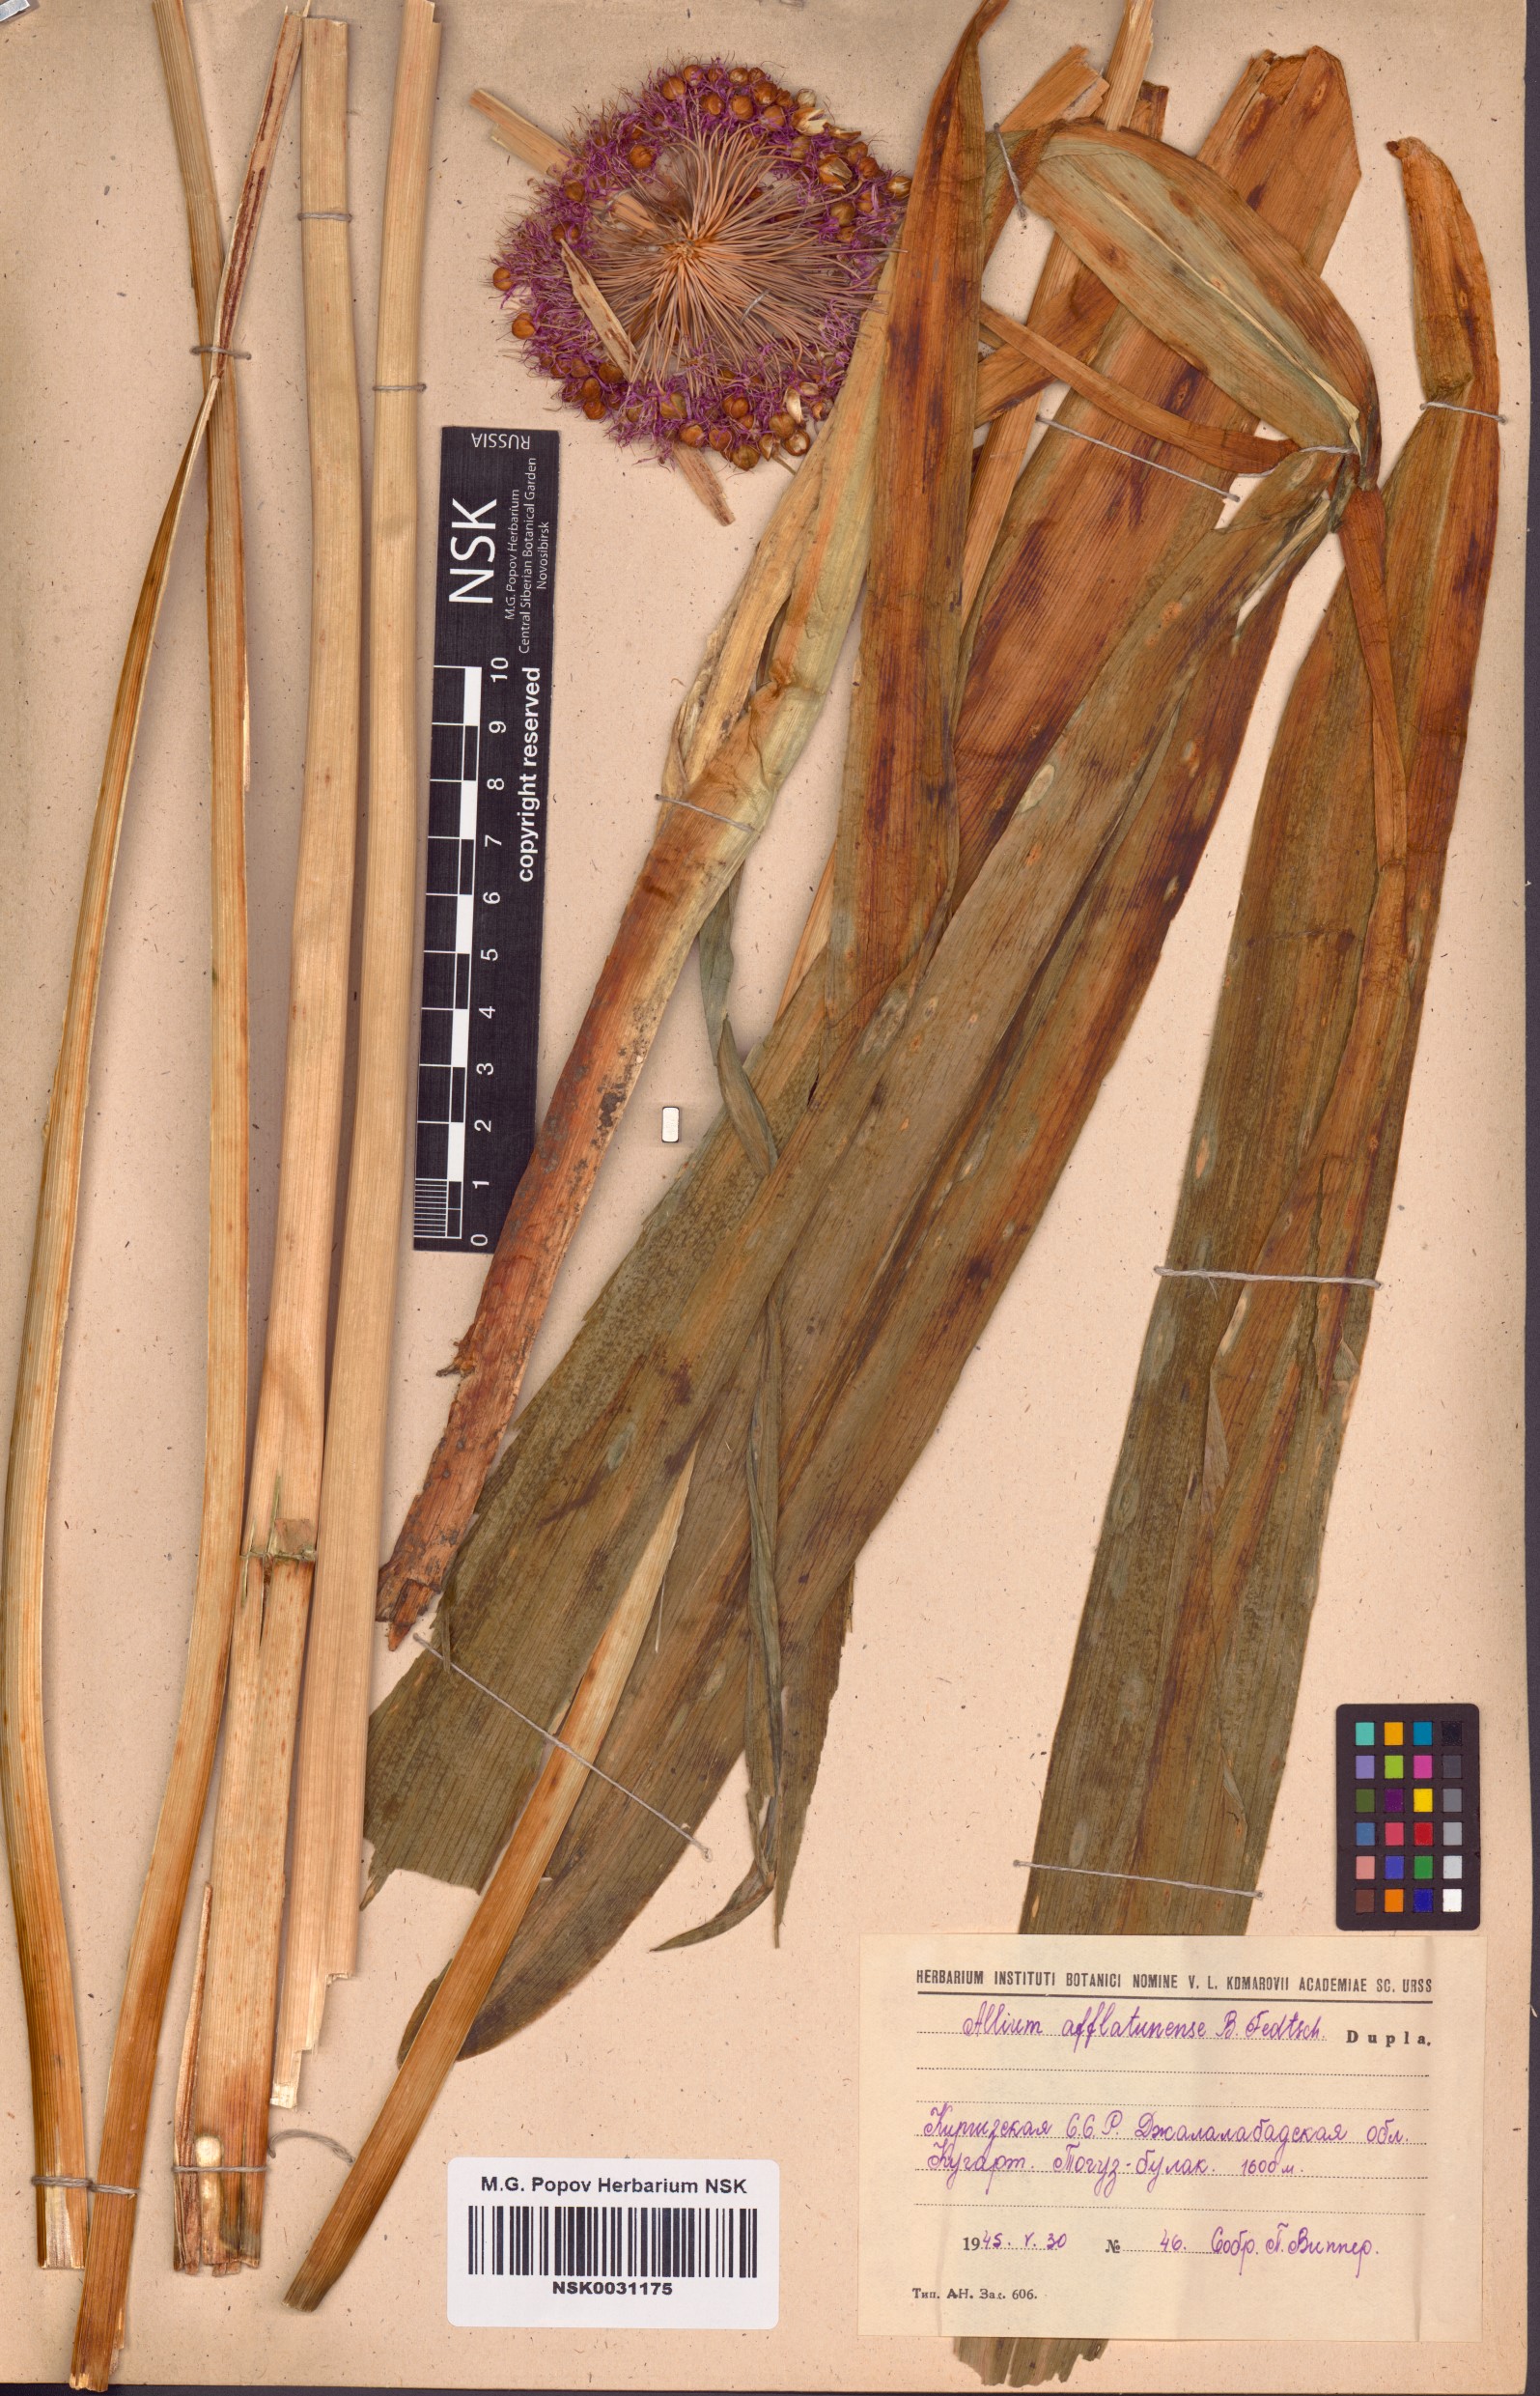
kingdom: Plantae
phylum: Tracheophyta
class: Liliopsida
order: Asparagales
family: Amaryllidaceae
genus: Allium
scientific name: Allium aflatunense
